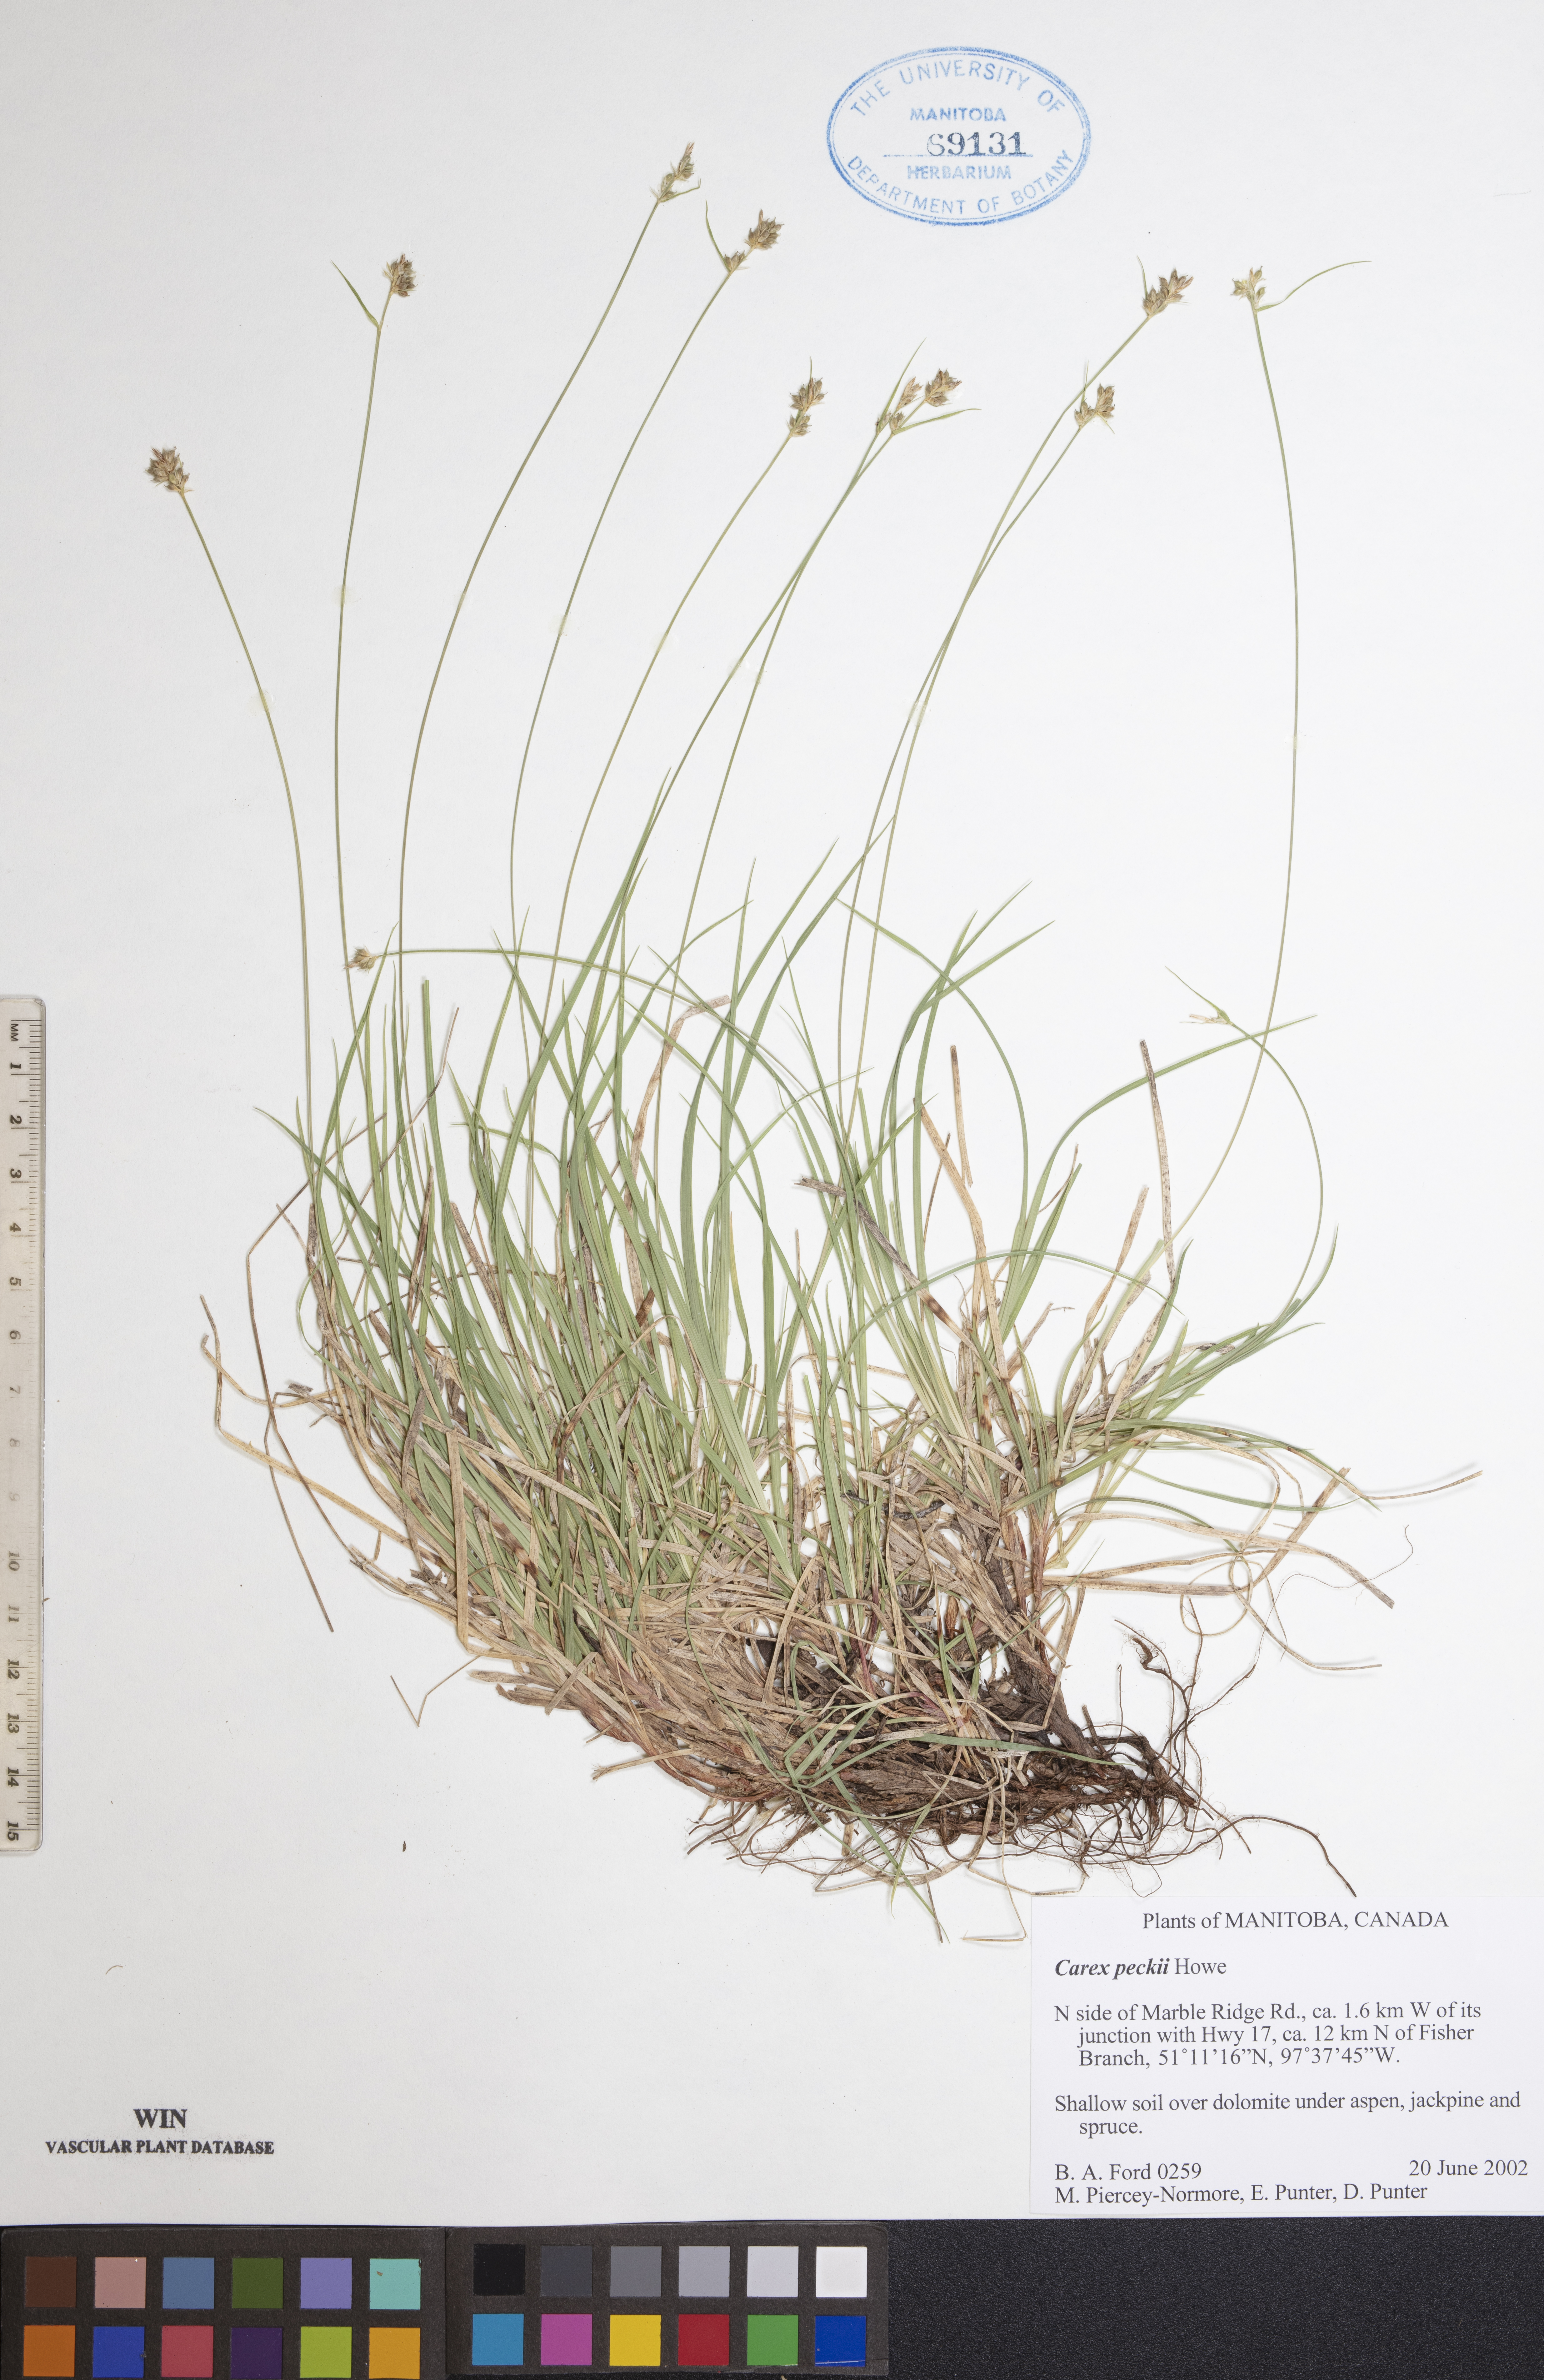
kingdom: Plantae
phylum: Tracheophyta
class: Liliopsida
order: Poales
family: Cyperaceae
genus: Carex
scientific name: Carex peckii
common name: Peck's oak sedge
